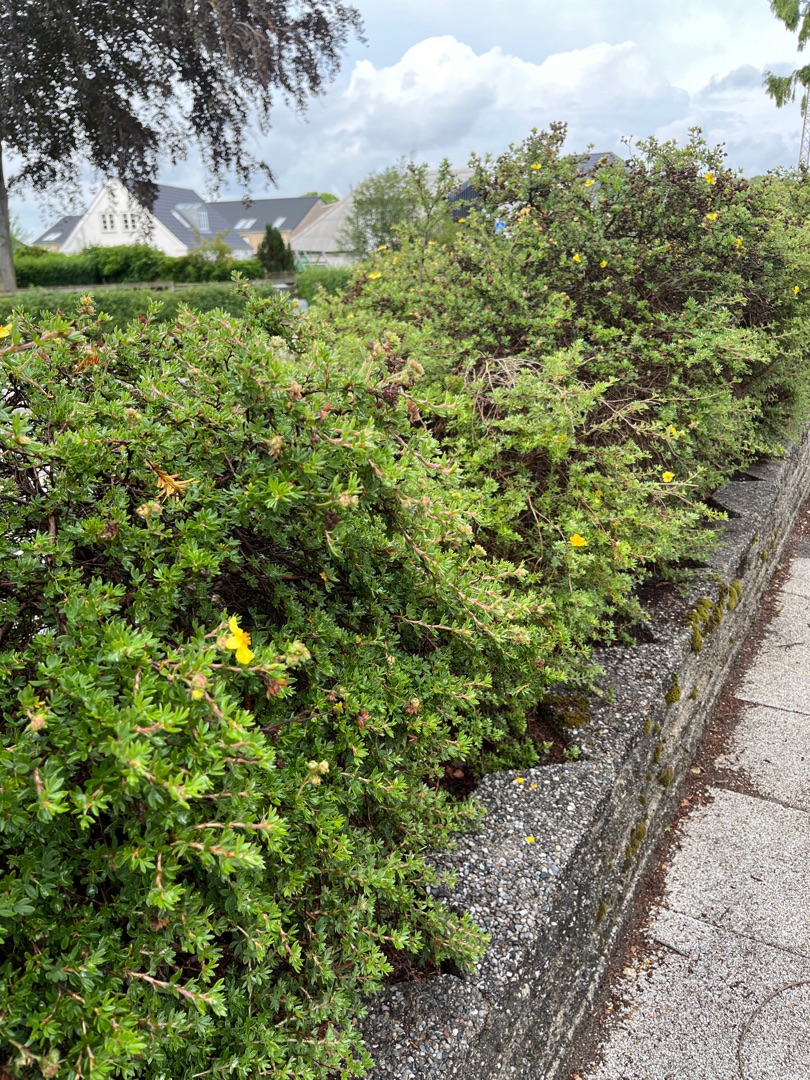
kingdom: Plantae
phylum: Tracheophyta
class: Magnoliopsida
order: Rosales
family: Rosaceae
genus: Dasiphora
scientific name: Dasiphora fruticosa
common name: Buskpotentil
